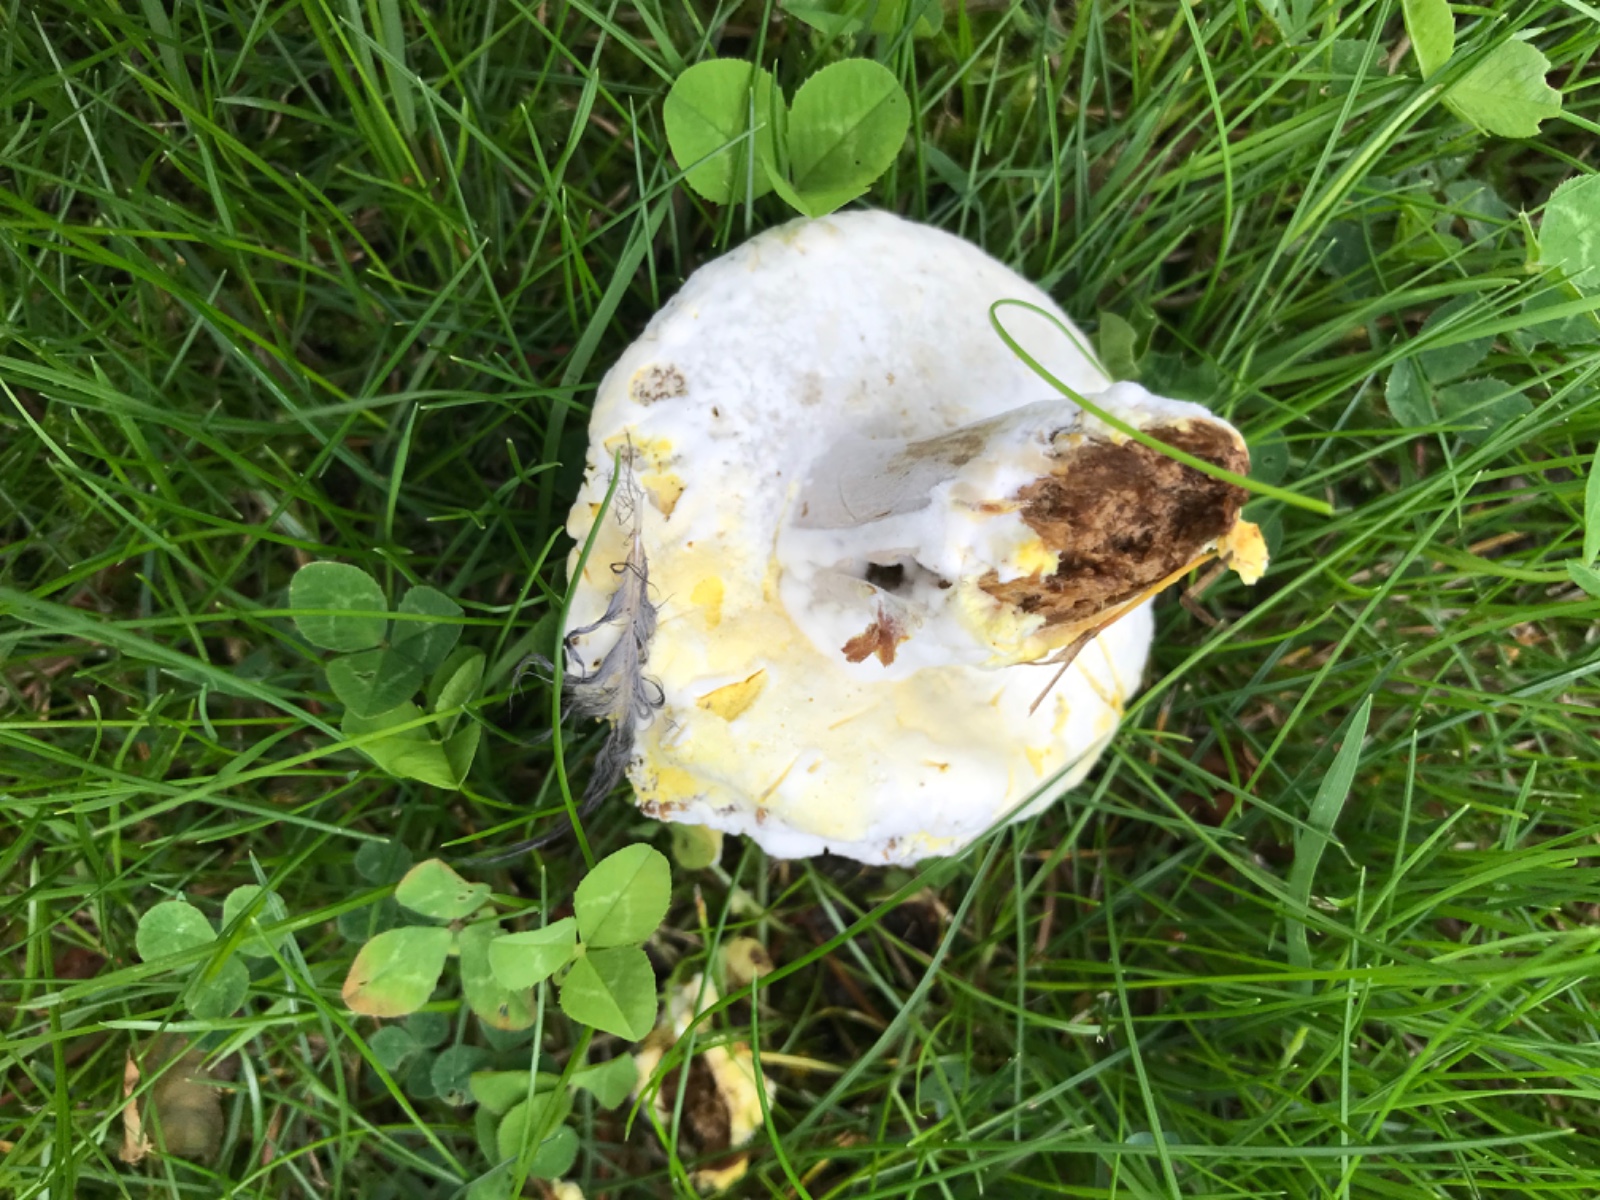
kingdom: Fungi
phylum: Ascomycota
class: Sordariomycetes
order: Hypocreales
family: Hypocreaceae
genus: Hypomyces
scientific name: Hypomyces microspermus
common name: dværgrørhat-snylteskorpe
